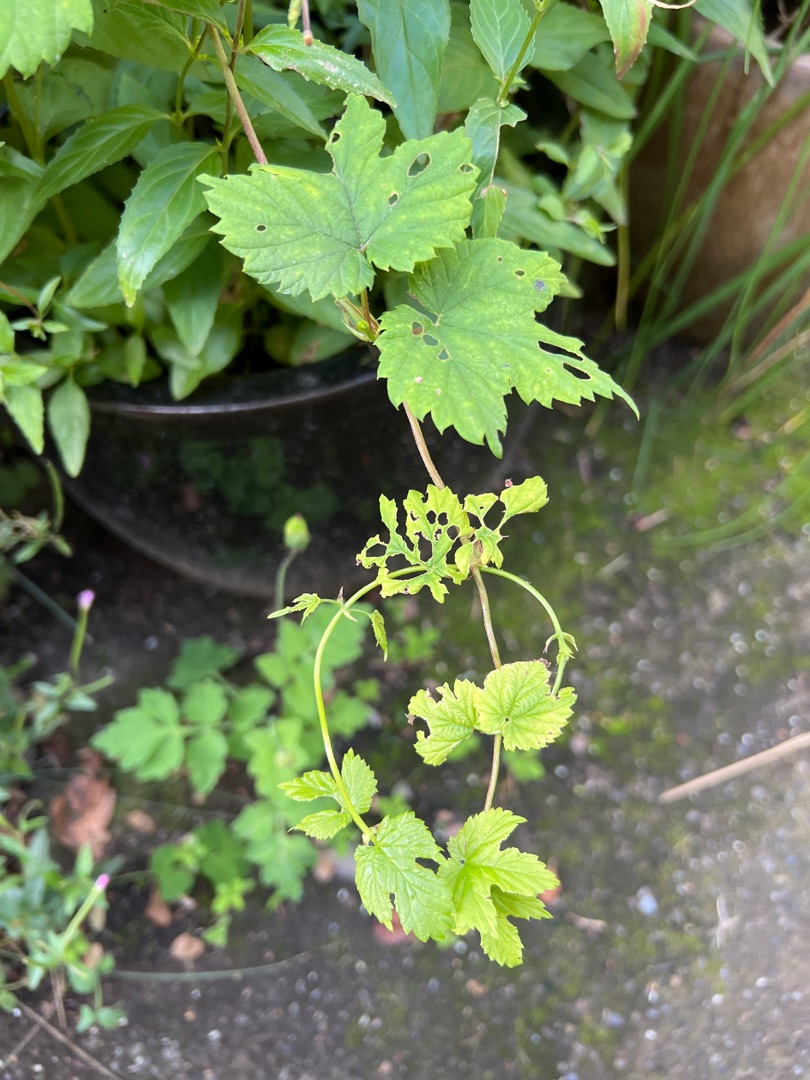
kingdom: Plantae
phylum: Tracheophyta
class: Magnoliopsida
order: Rosales
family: Cannabaceae
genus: Humulus
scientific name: Humulus lupulus
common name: Humle
